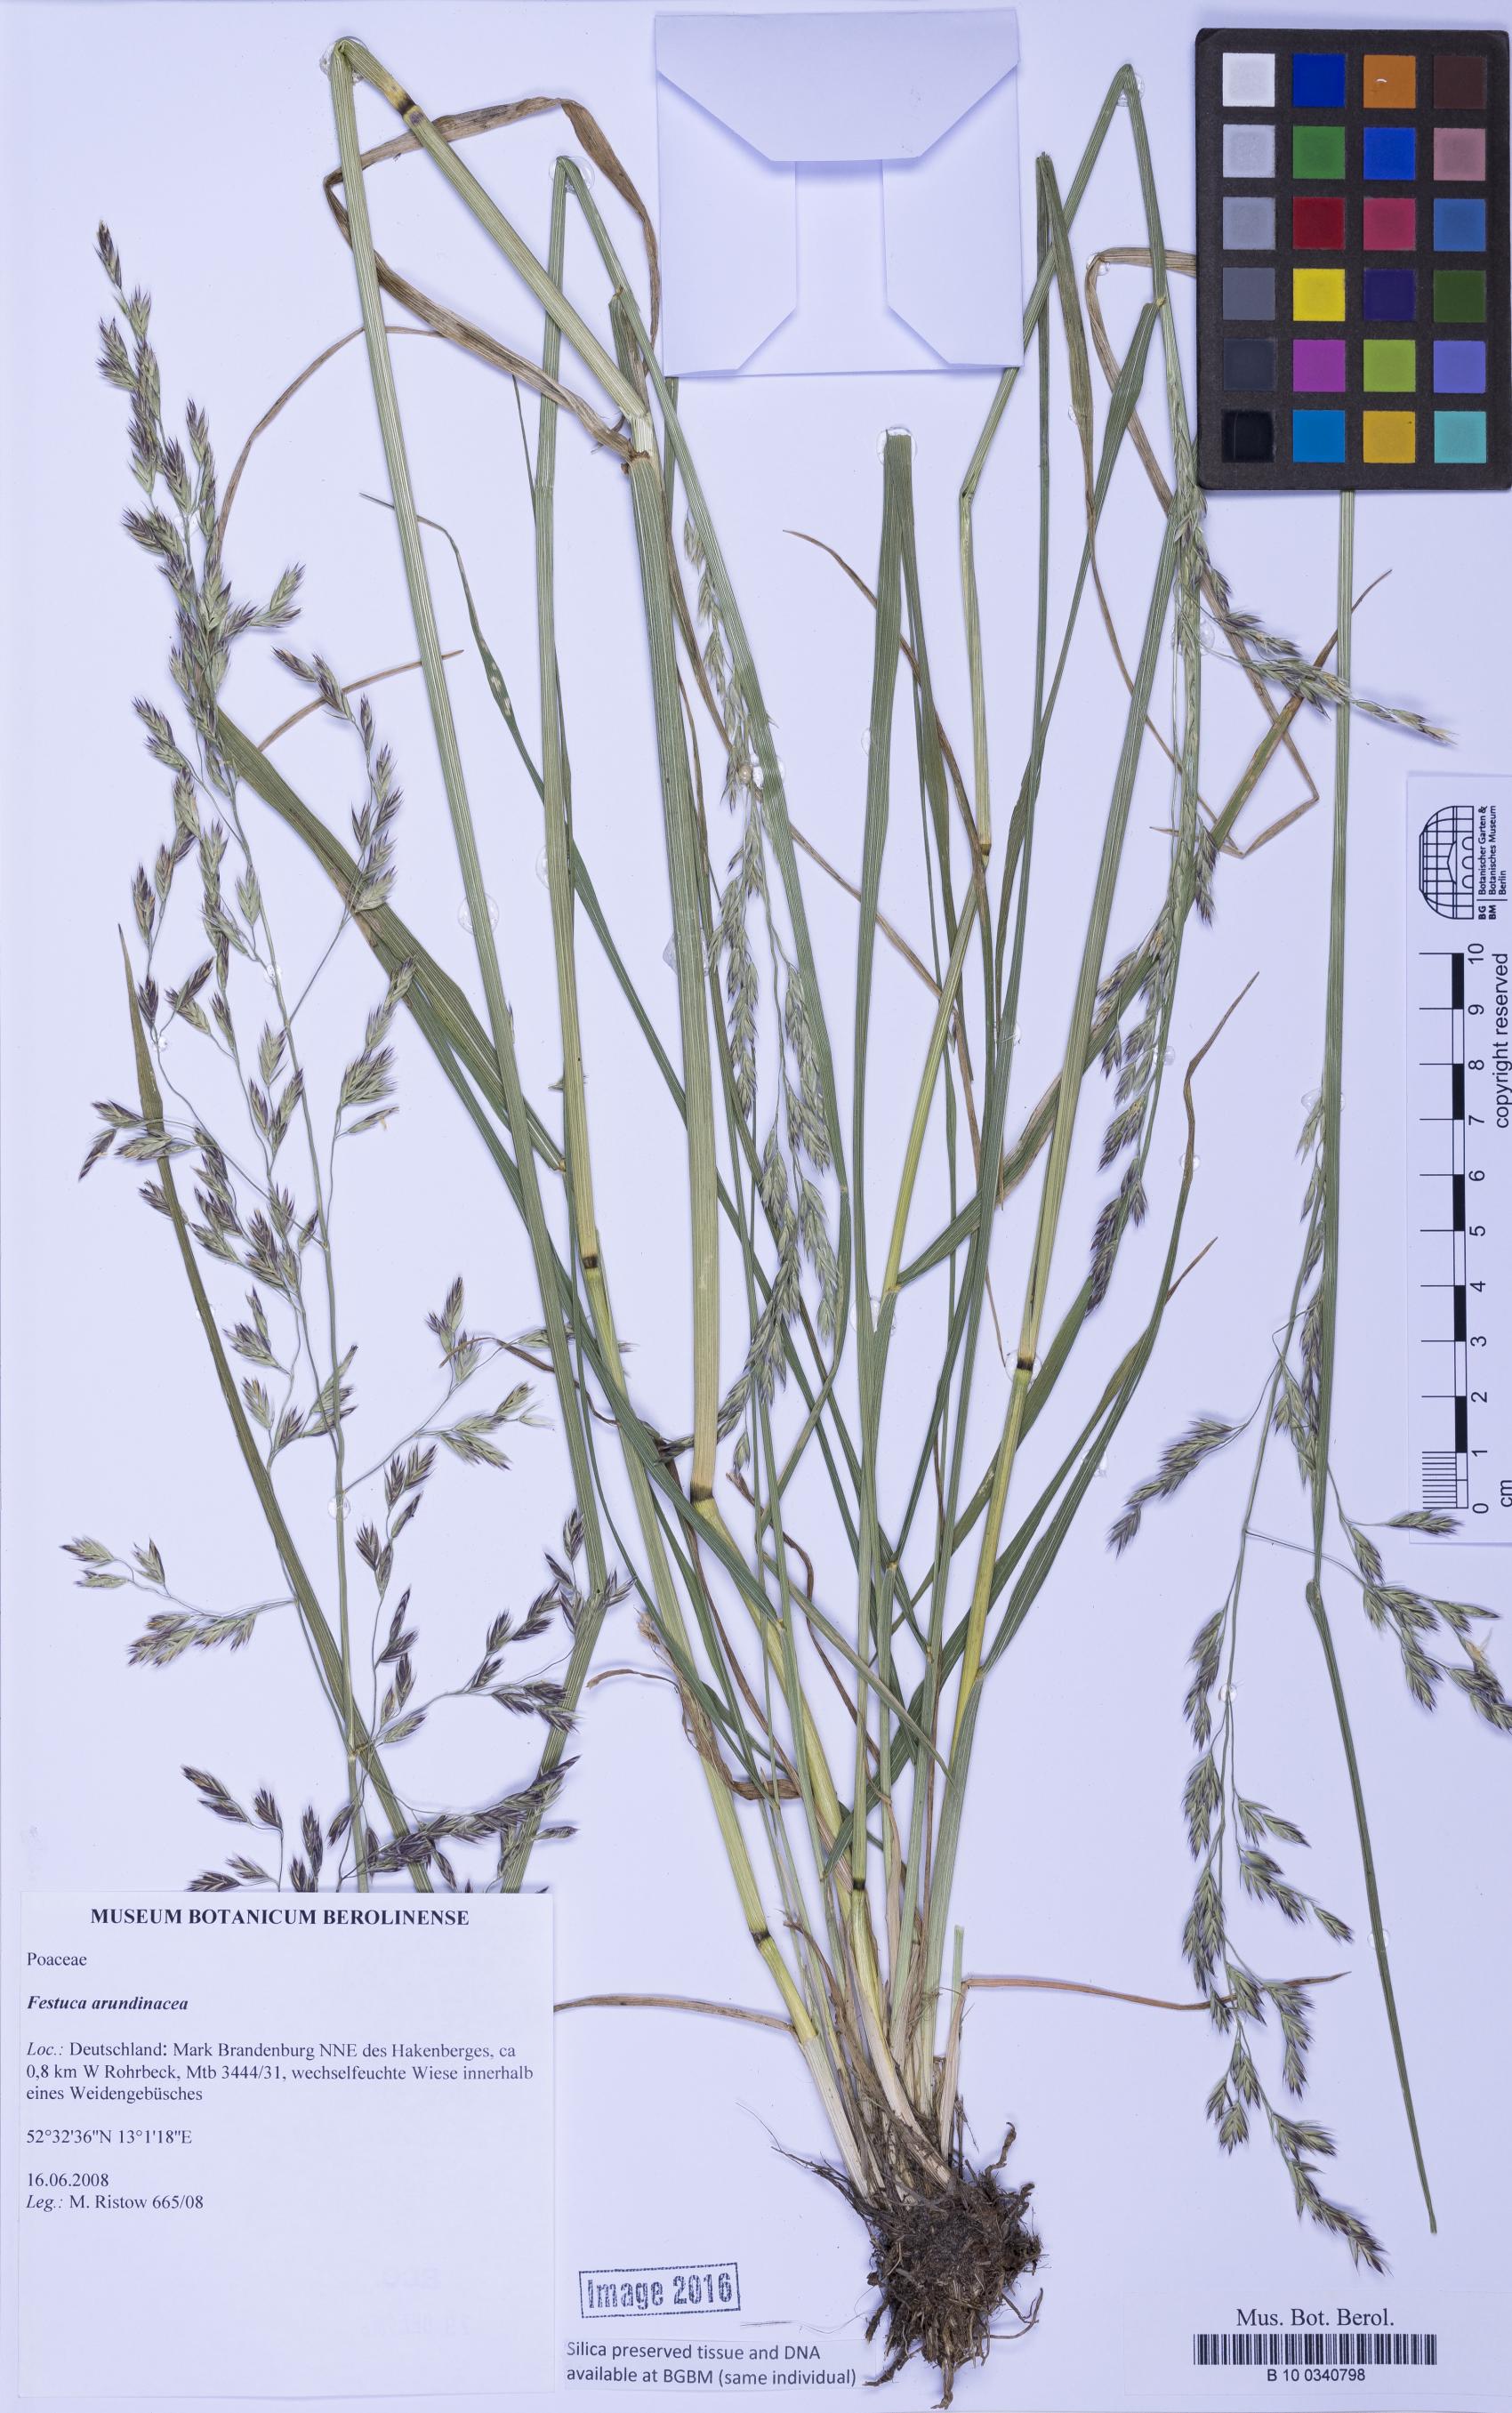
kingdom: Plantae
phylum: Tracheophyta
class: Liliopsida
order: Poales
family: Poaceae
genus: Lolium
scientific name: Lolium arundinaceum
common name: Reed fescue
